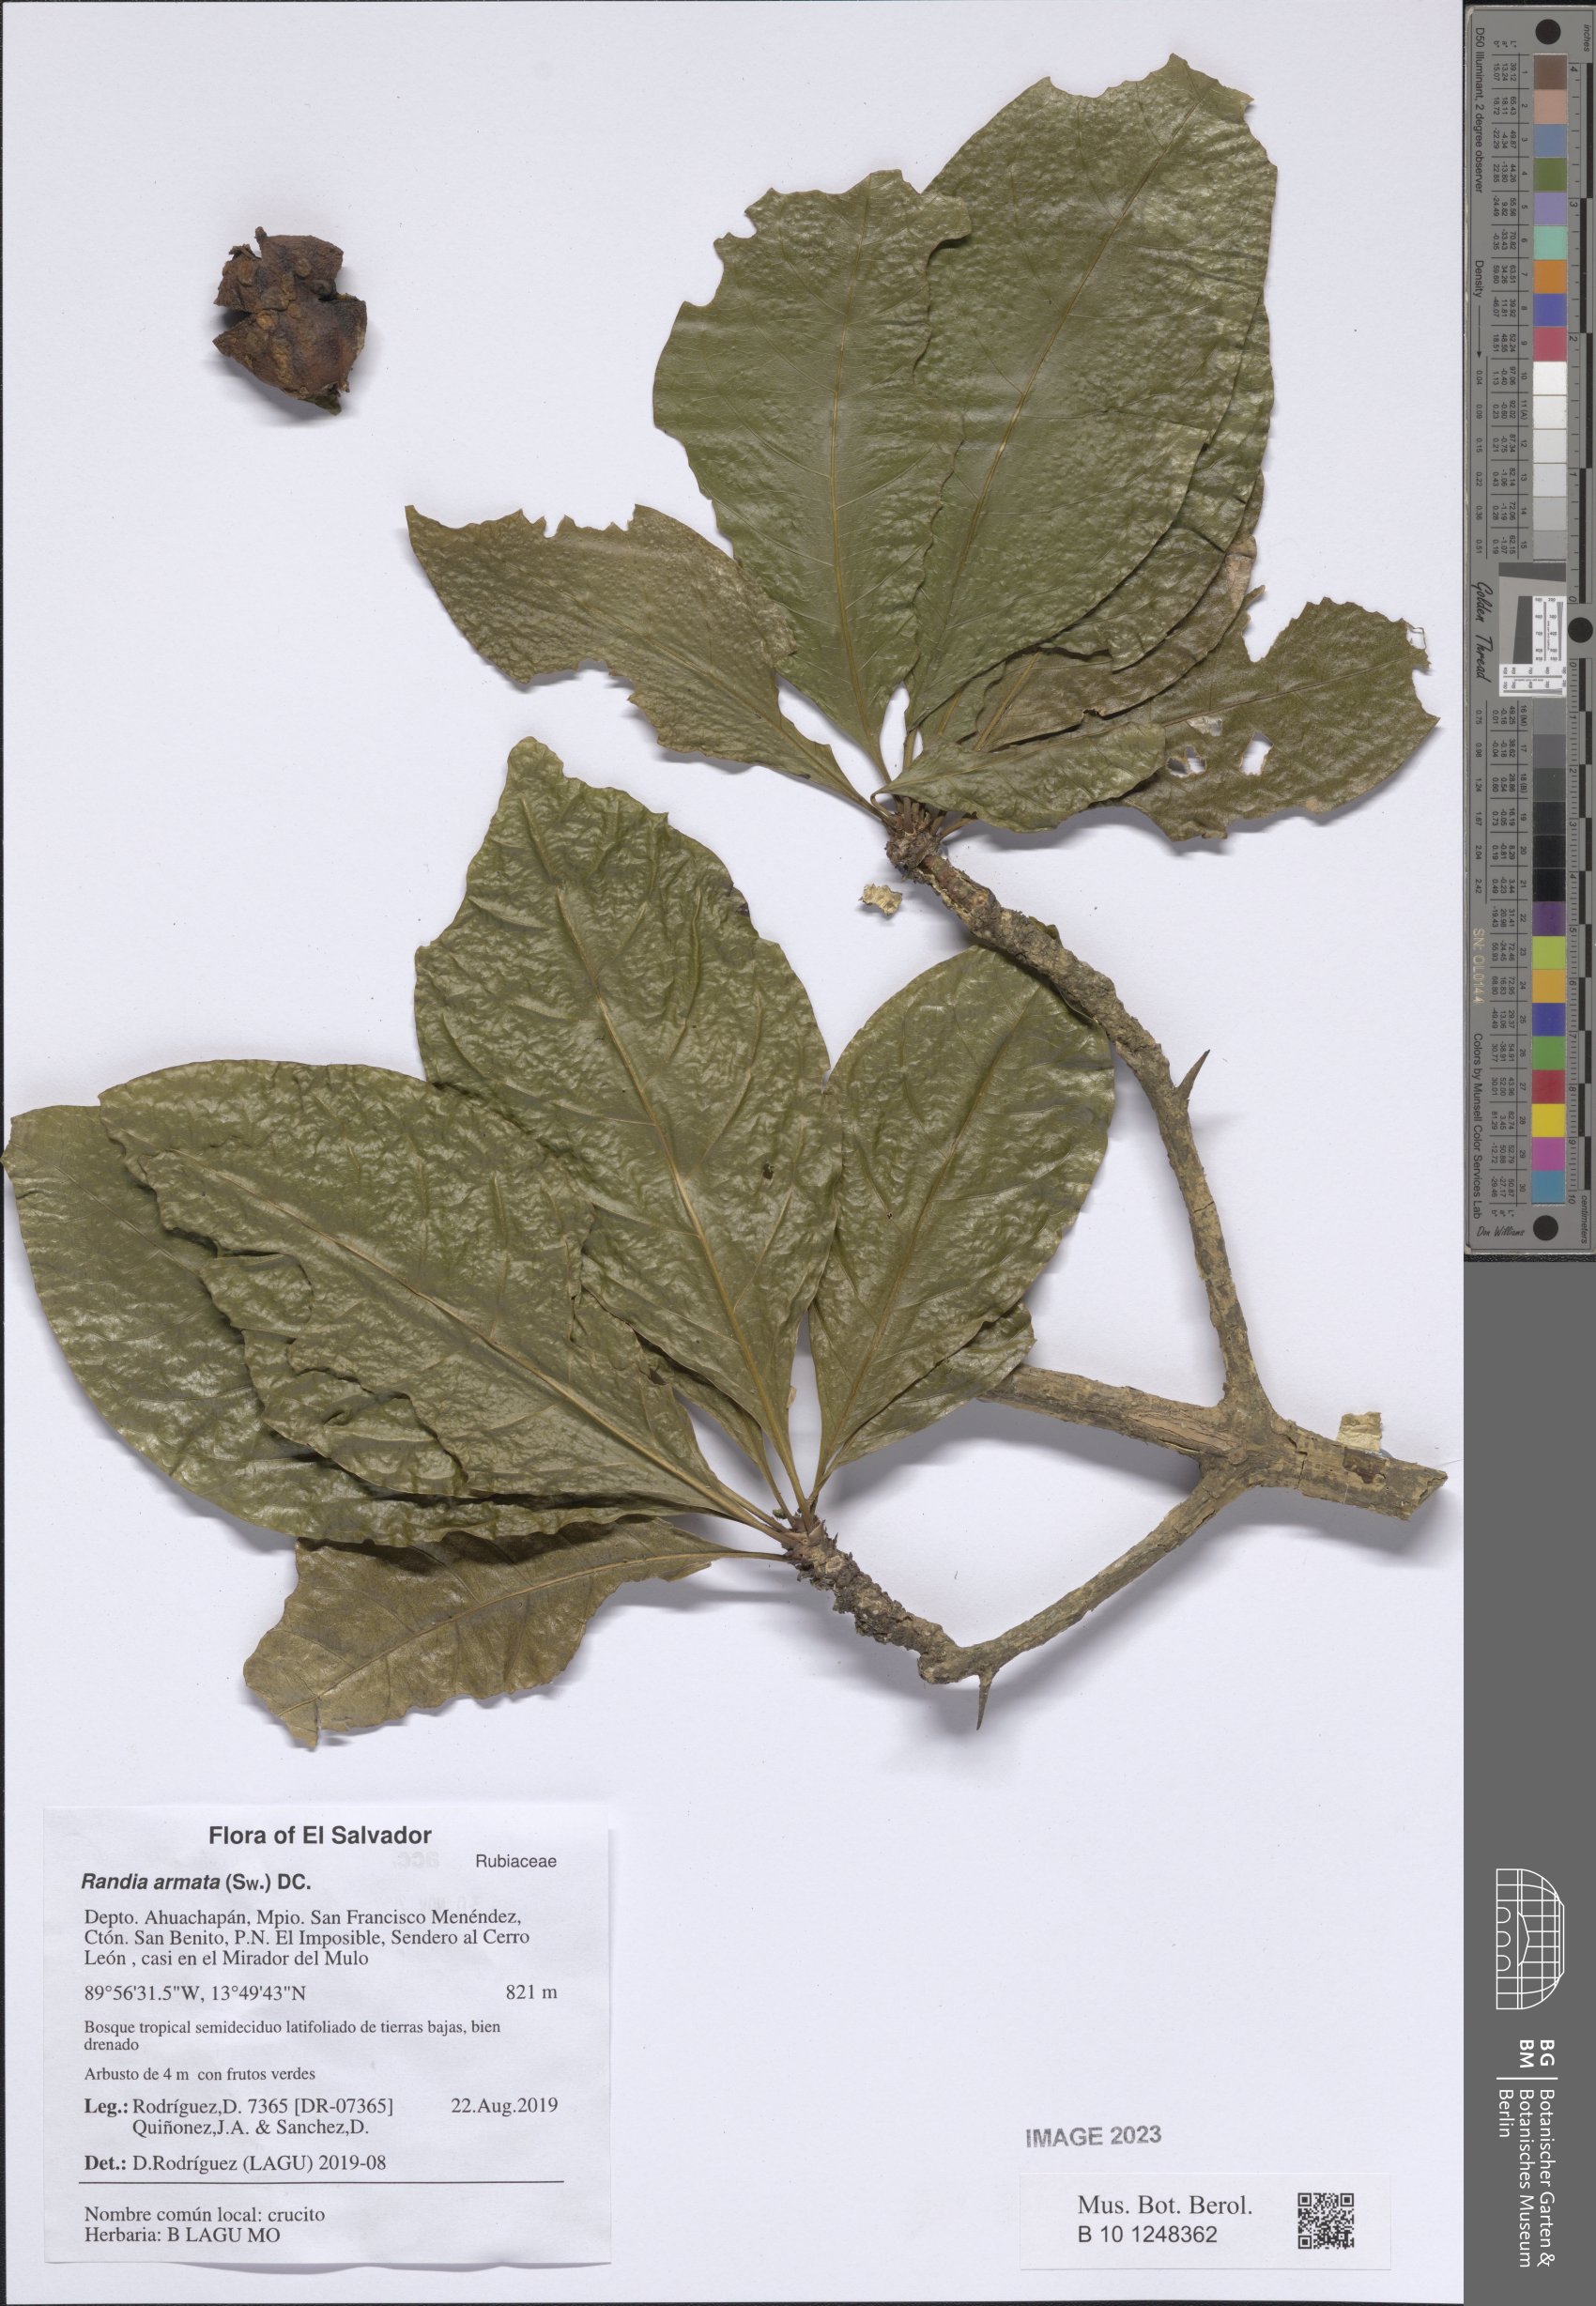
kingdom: Plantae
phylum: Tracheophyta
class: Magnoliopsida
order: Gentianales
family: Rubiaceae
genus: Randia
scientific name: Randia armata
